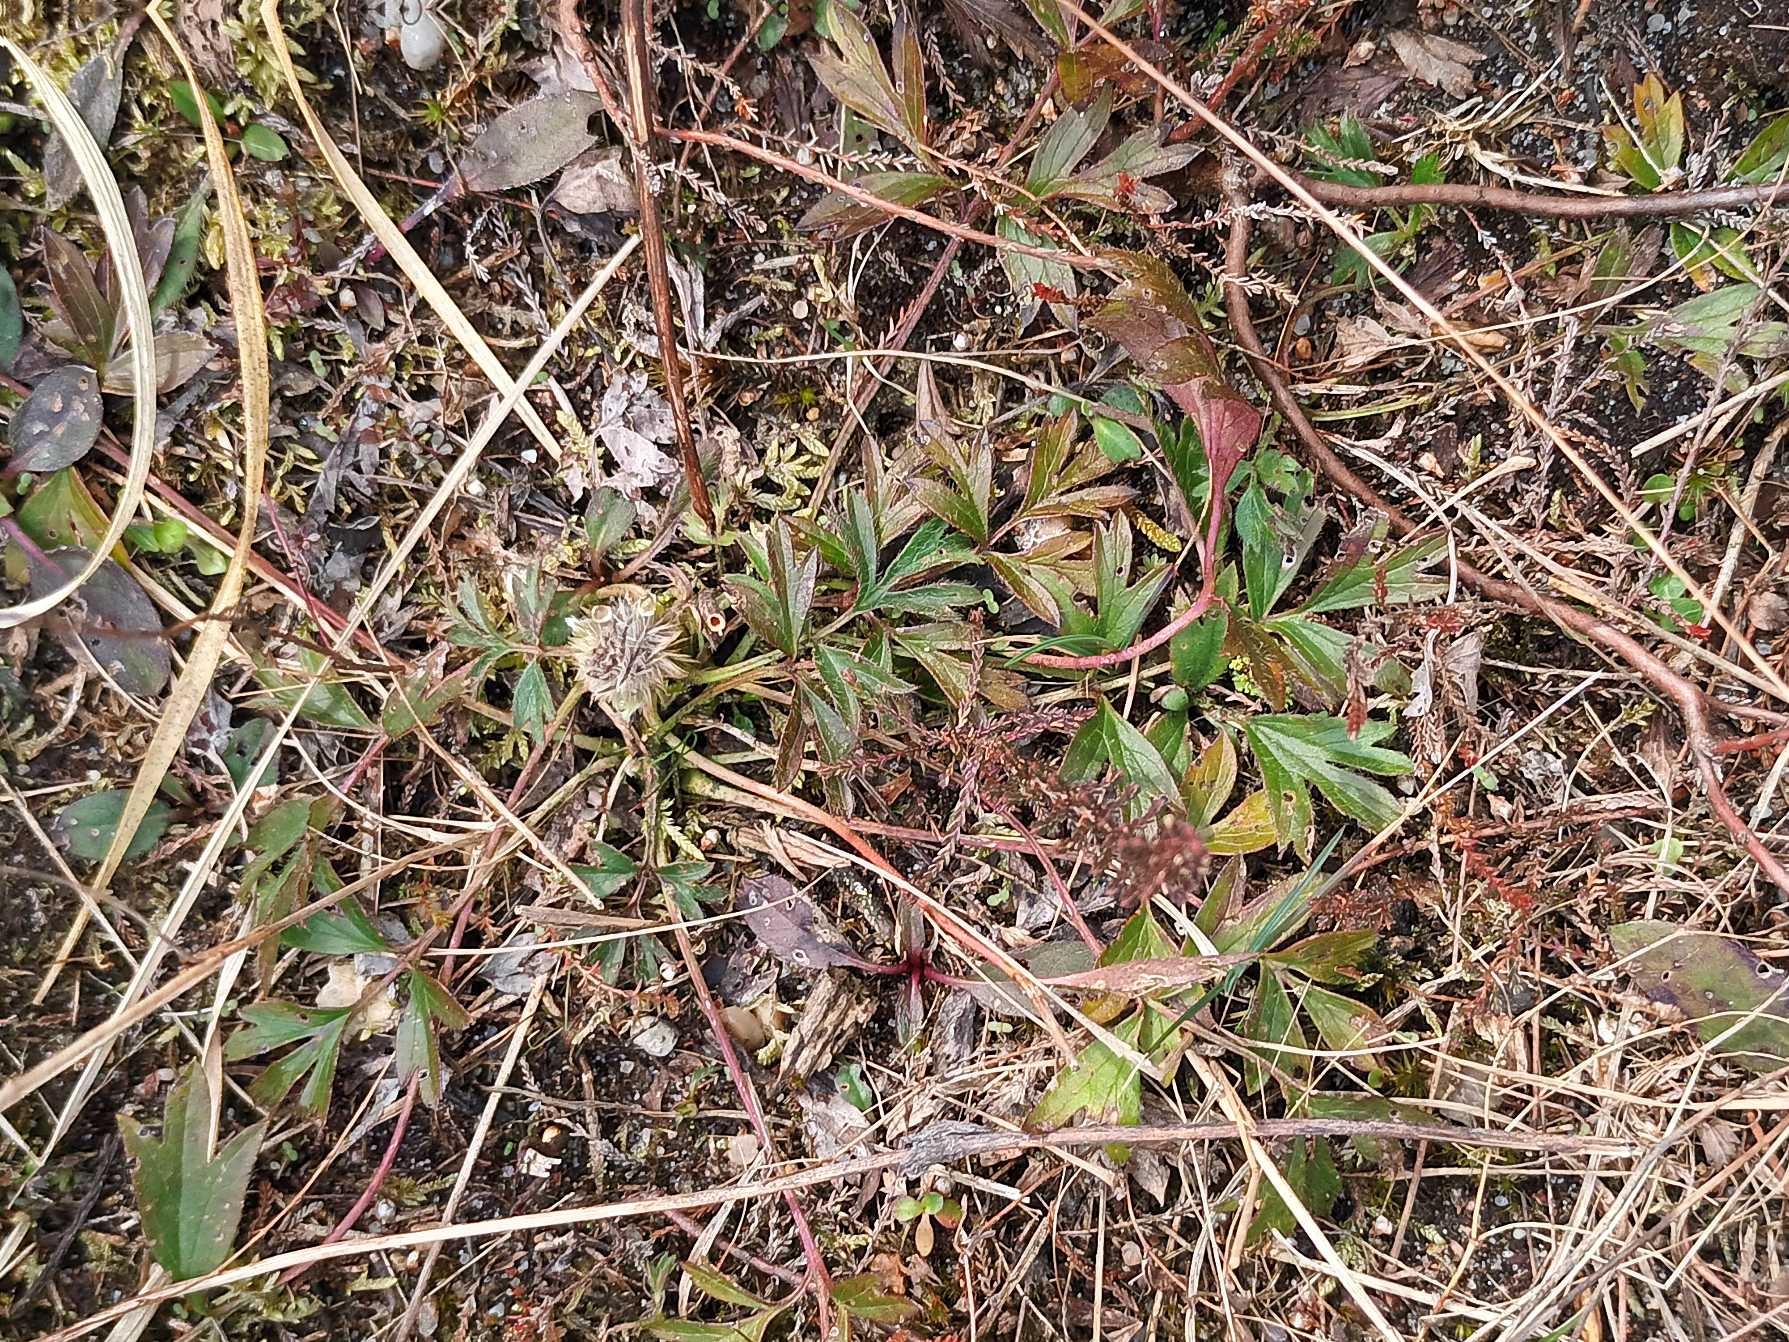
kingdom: Plantae
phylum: Tracheophyta
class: Magnoliopsida
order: Ranunculales
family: Ranunculaceae
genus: Pulsatilla
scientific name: Pulsatilla vernalis
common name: Vår-kobjælde
